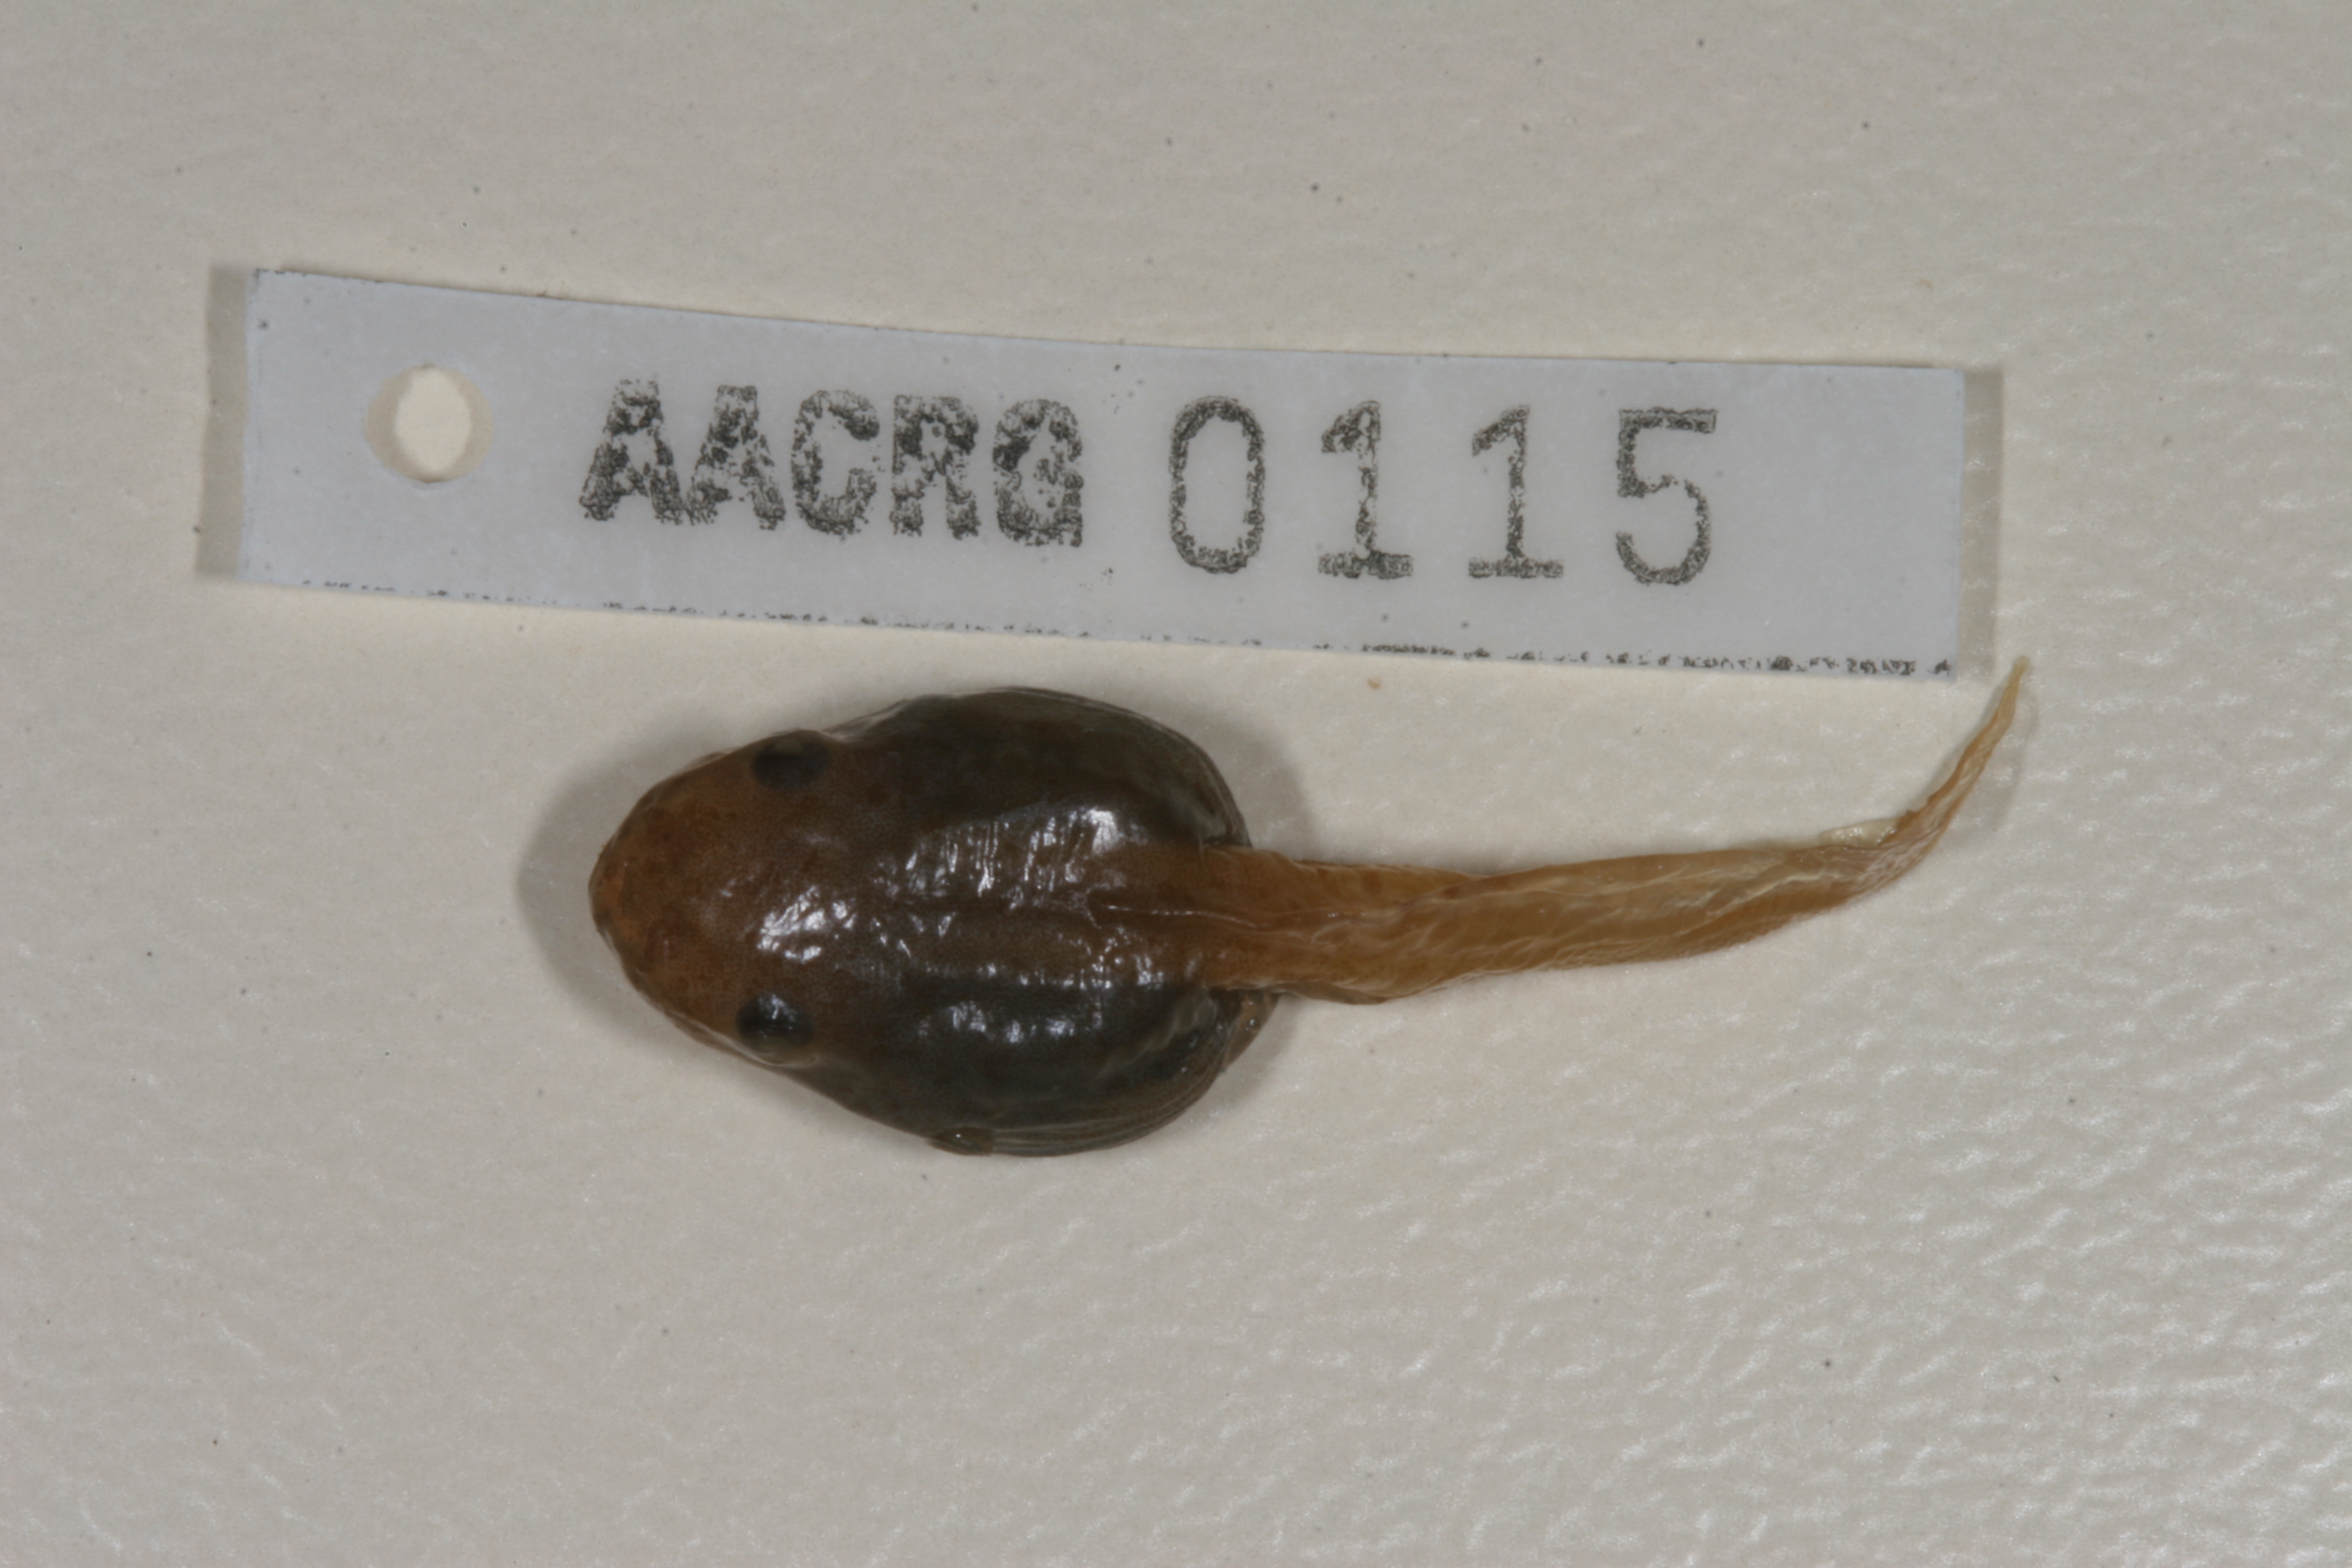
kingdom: Animalia
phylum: Chordata
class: Amphibia
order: Anura
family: Hyperoliidae
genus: Hyperolius
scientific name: Hyperolius argus
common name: Argus reed frog
